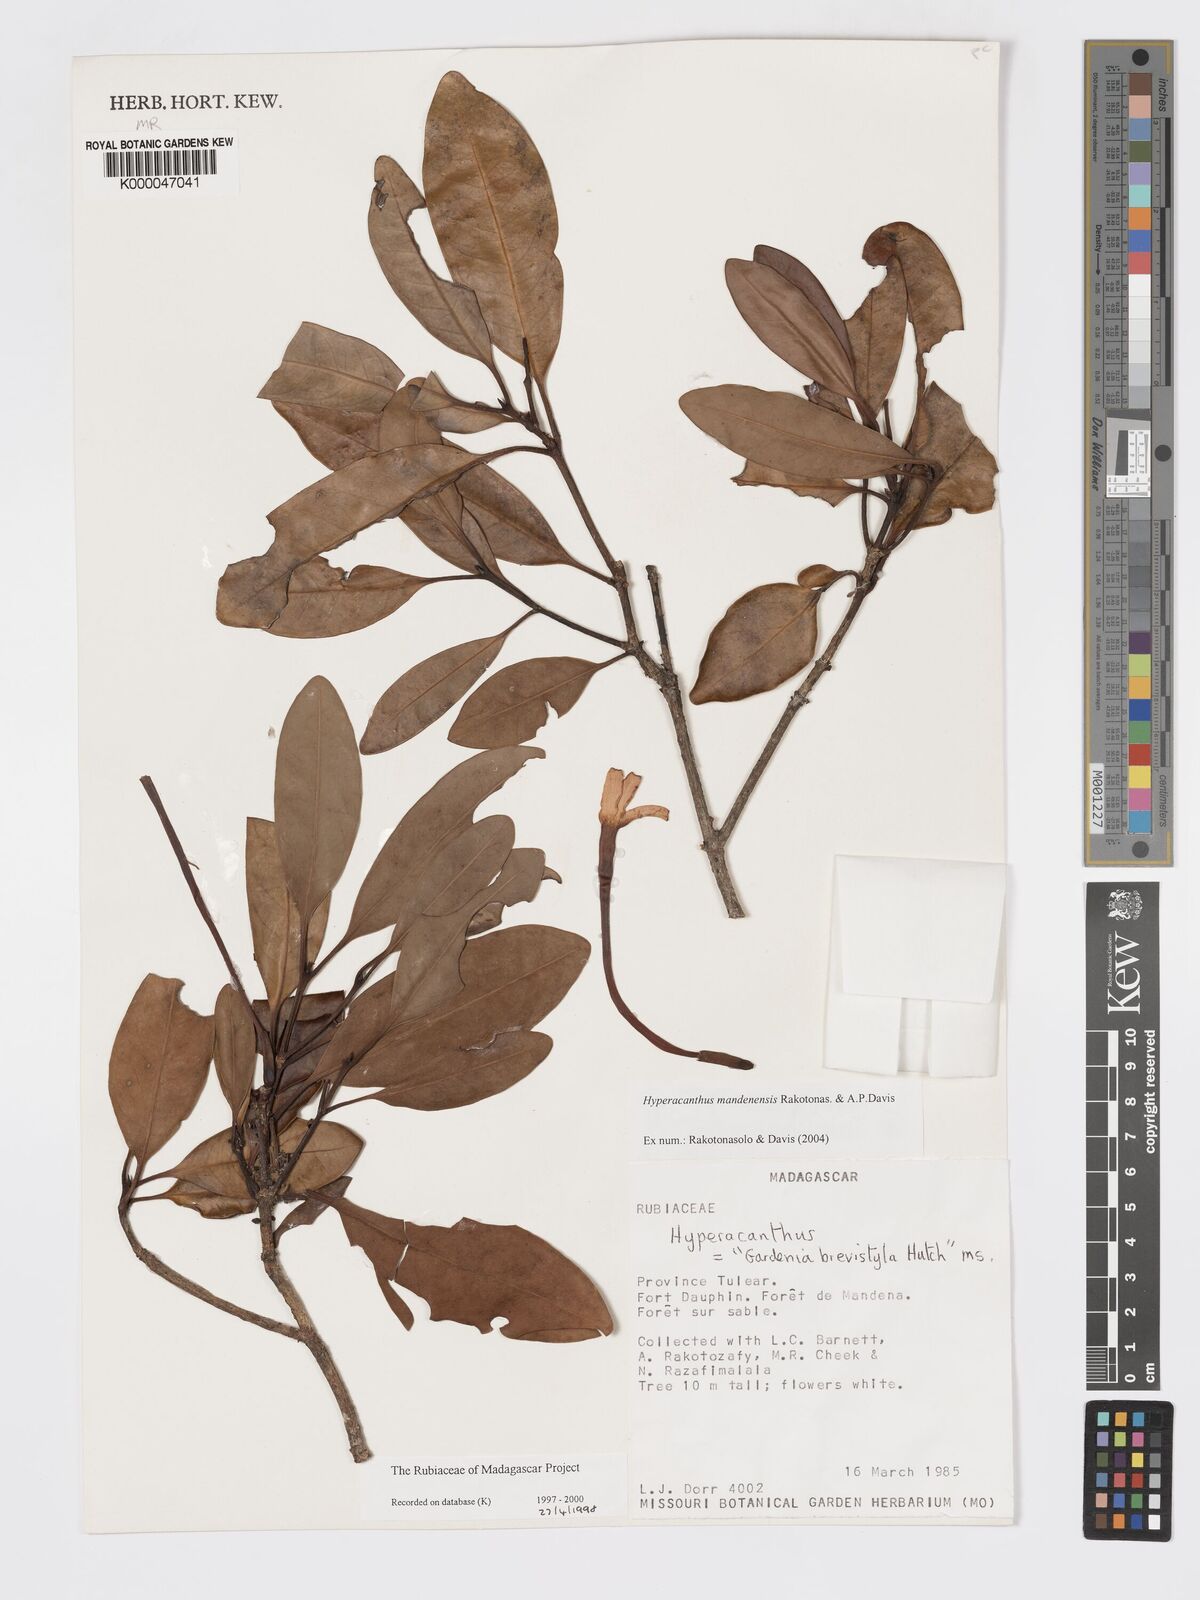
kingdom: Plantae
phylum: Tracheophyta
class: Magnoliopsida
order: Gentianales
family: Rubiaceae
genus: Hyperacanthus
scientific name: Hyperacanthus mandenensis
